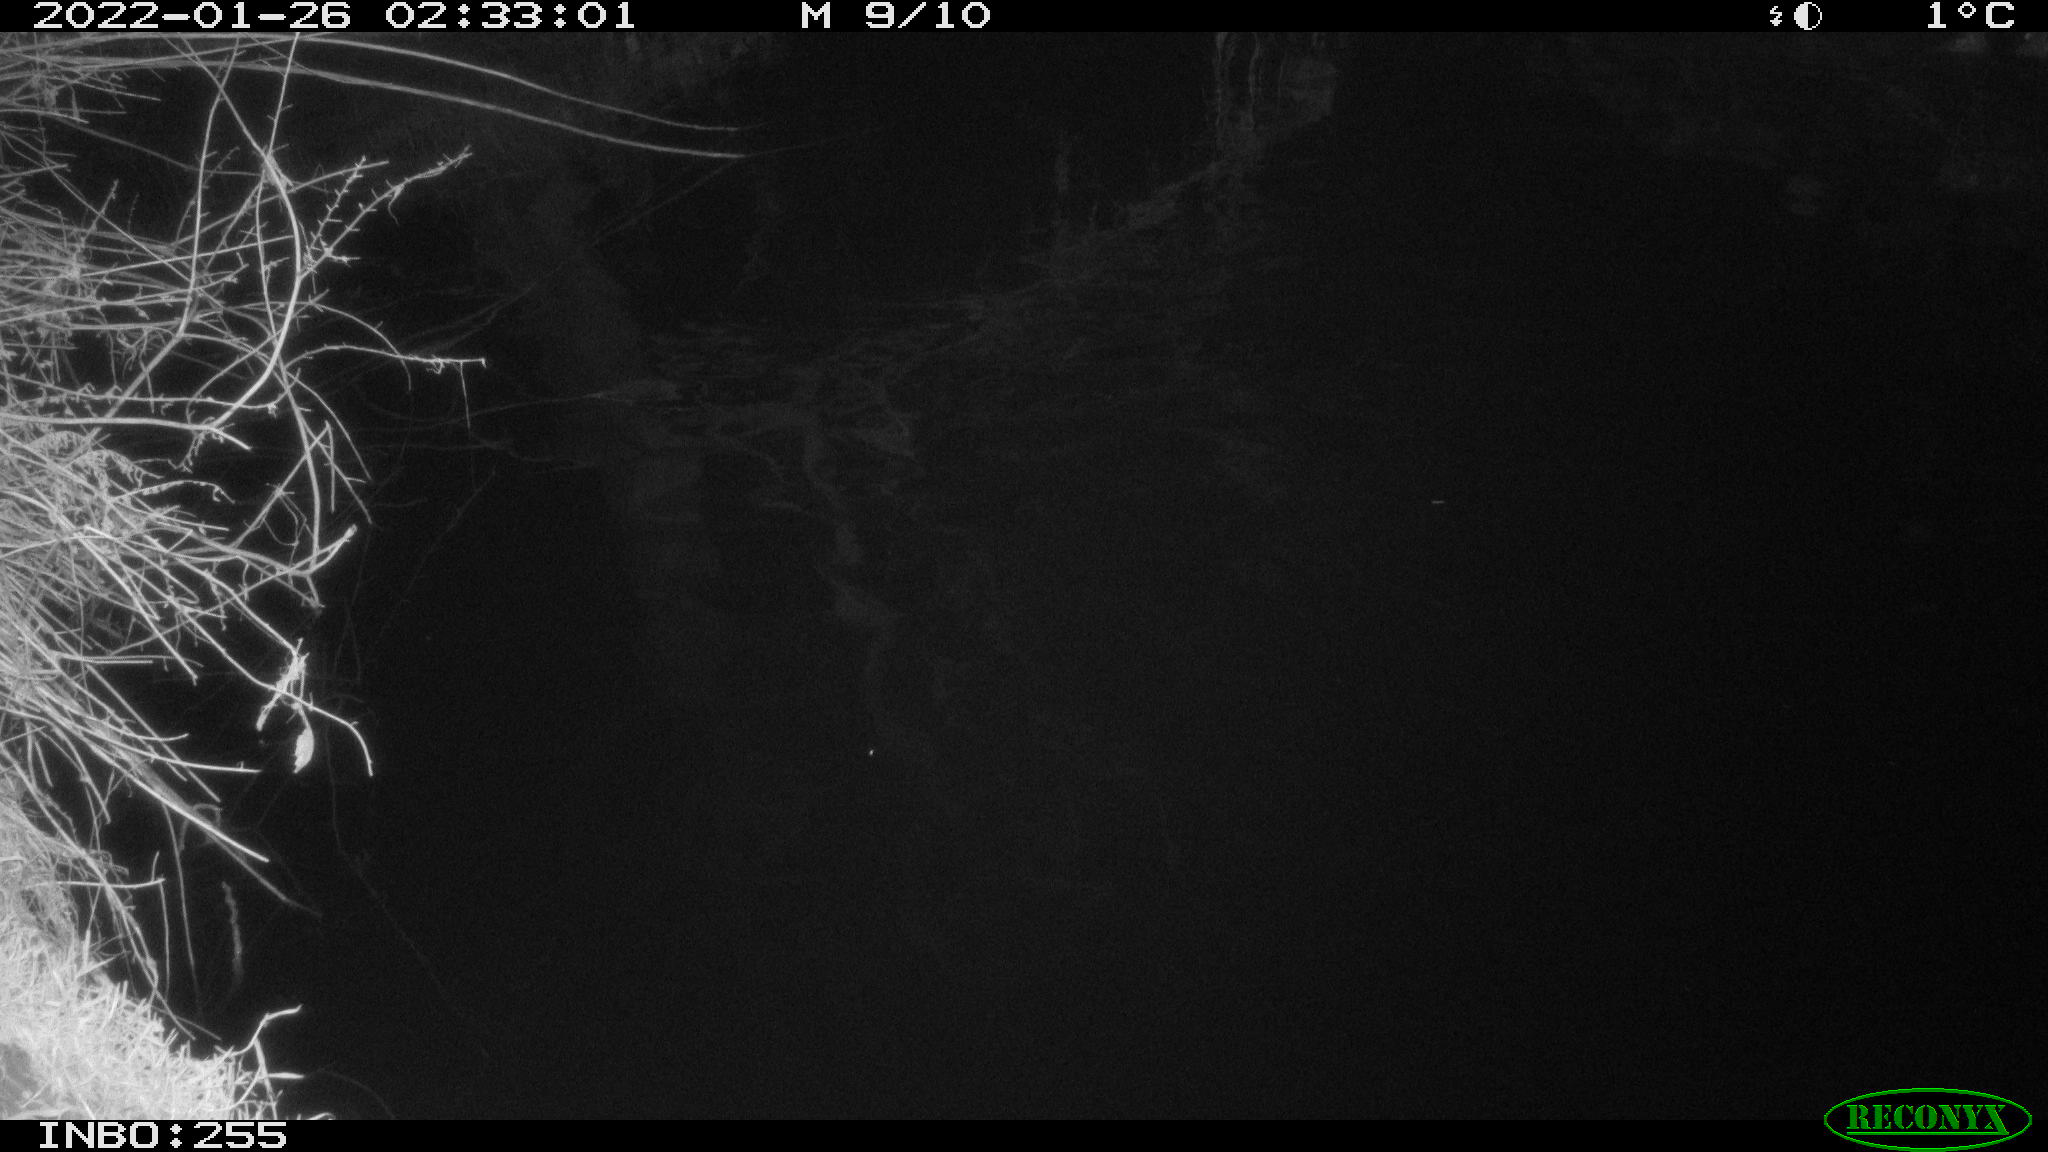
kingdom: Animalia
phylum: Chordata
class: Aves
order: Anseriformes
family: Anatidae
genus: Anas
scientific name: Anas
